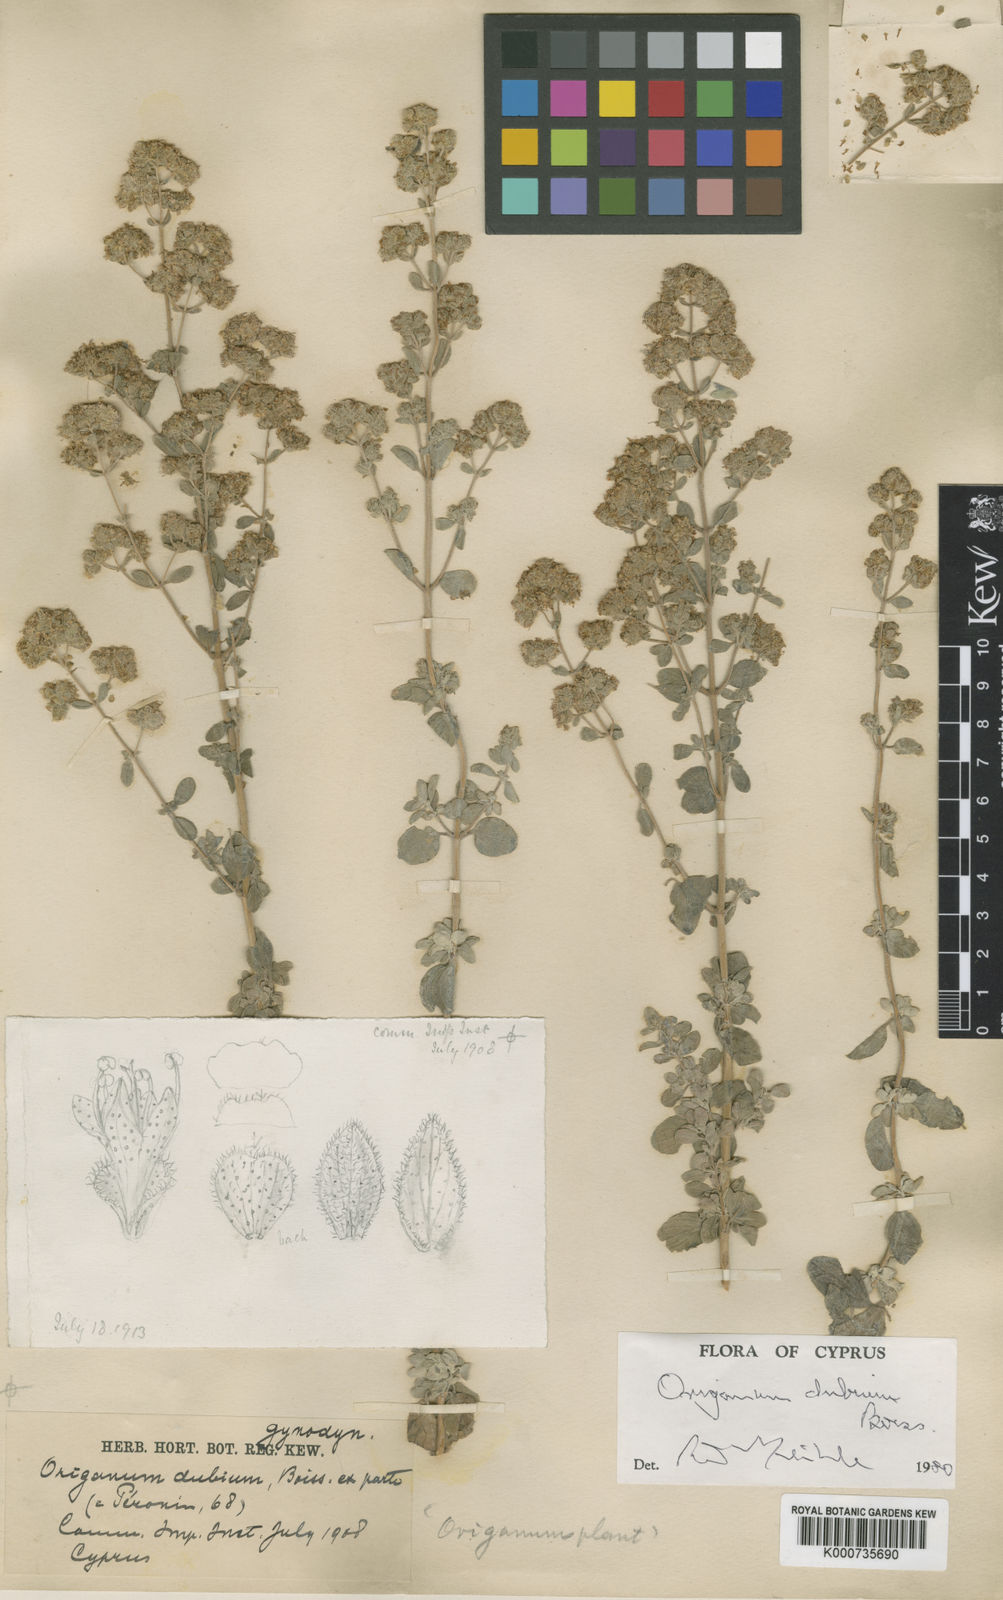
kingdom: Plantae
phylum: Tracheophyta
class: Magnoliopsida
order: Lamiales
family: Lamiaceae
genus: Origanum
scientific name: Origanum majorana
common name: Sweet marjoram
